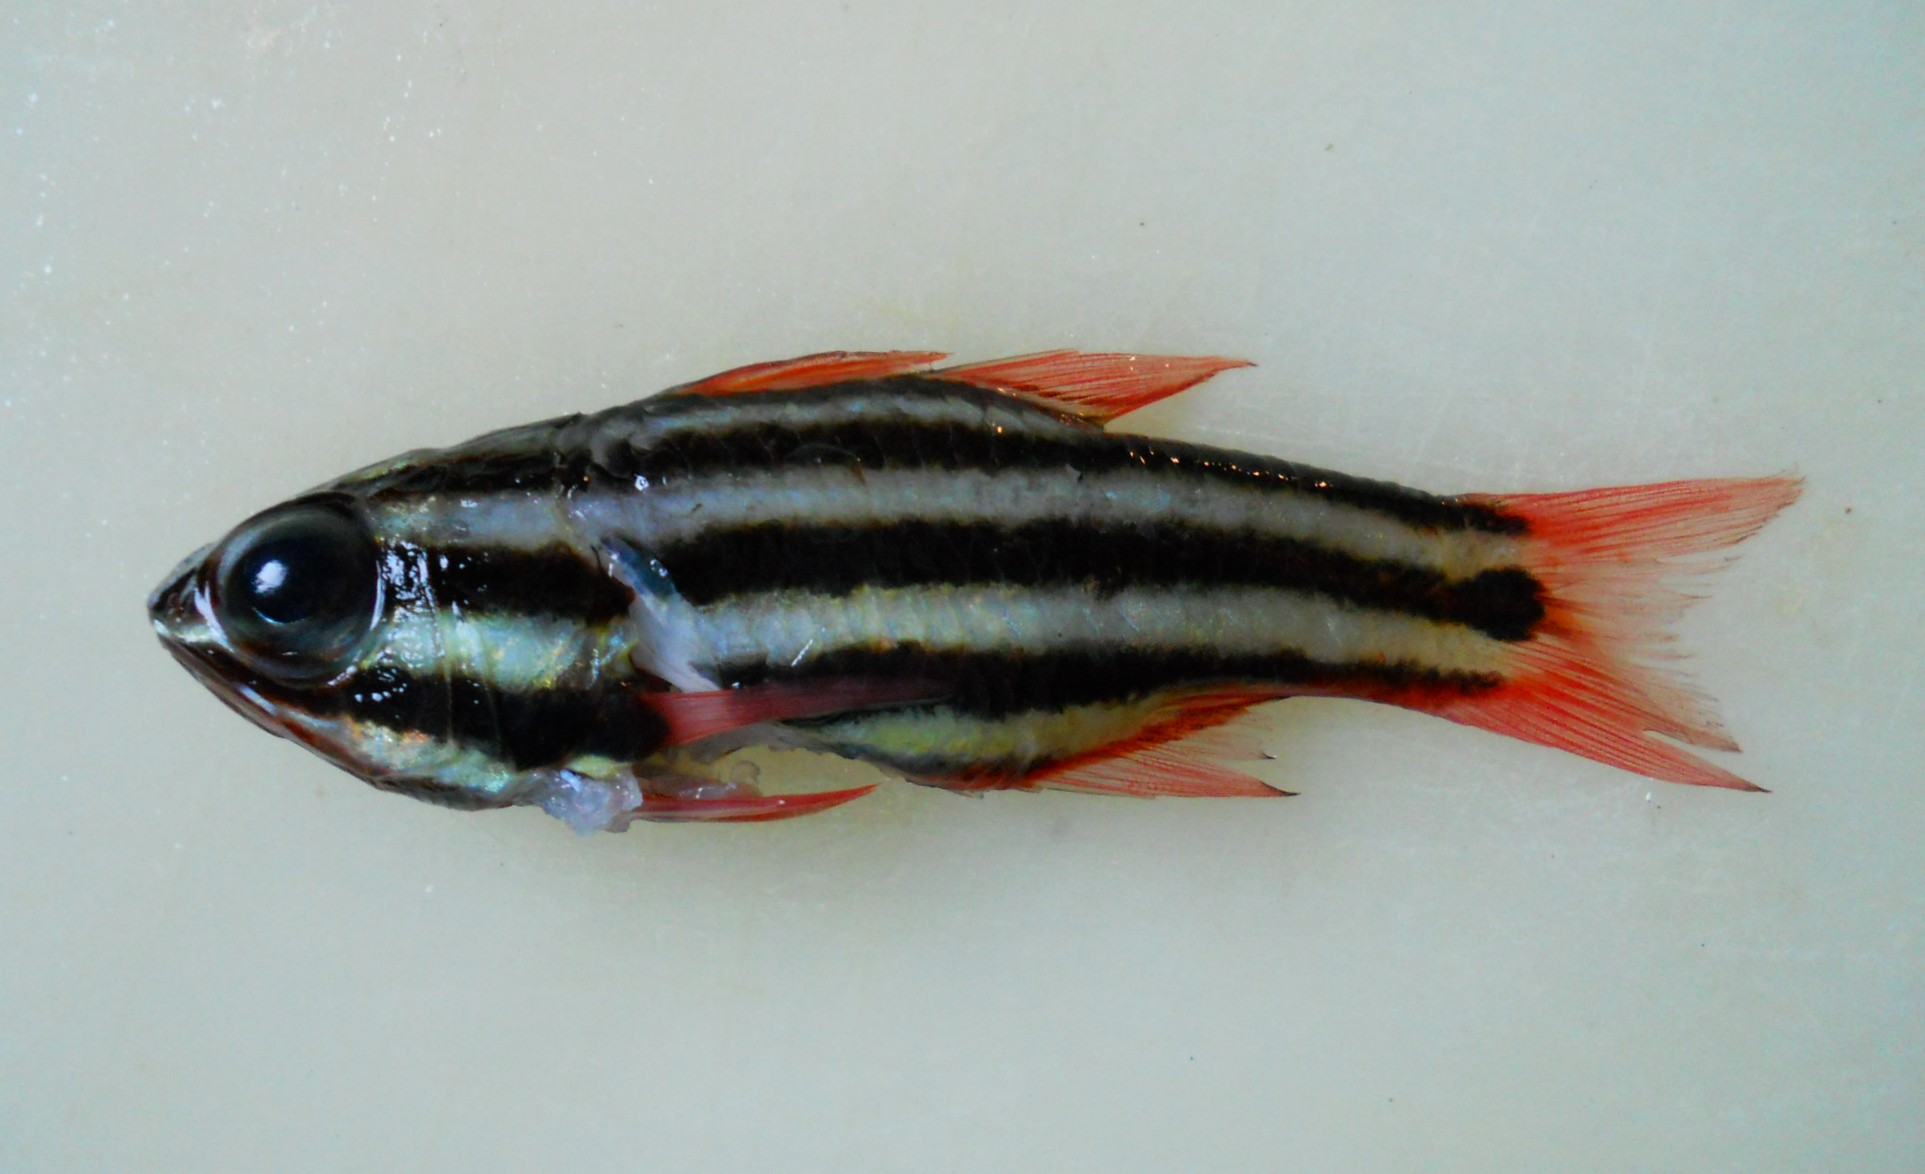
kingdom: Animalia
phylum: Chordata
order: Perciformes
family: Apogonidae
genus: Ostorhinchus
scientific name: Ostorhinchus angustatus
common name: Narrow-striped cardinalfish
